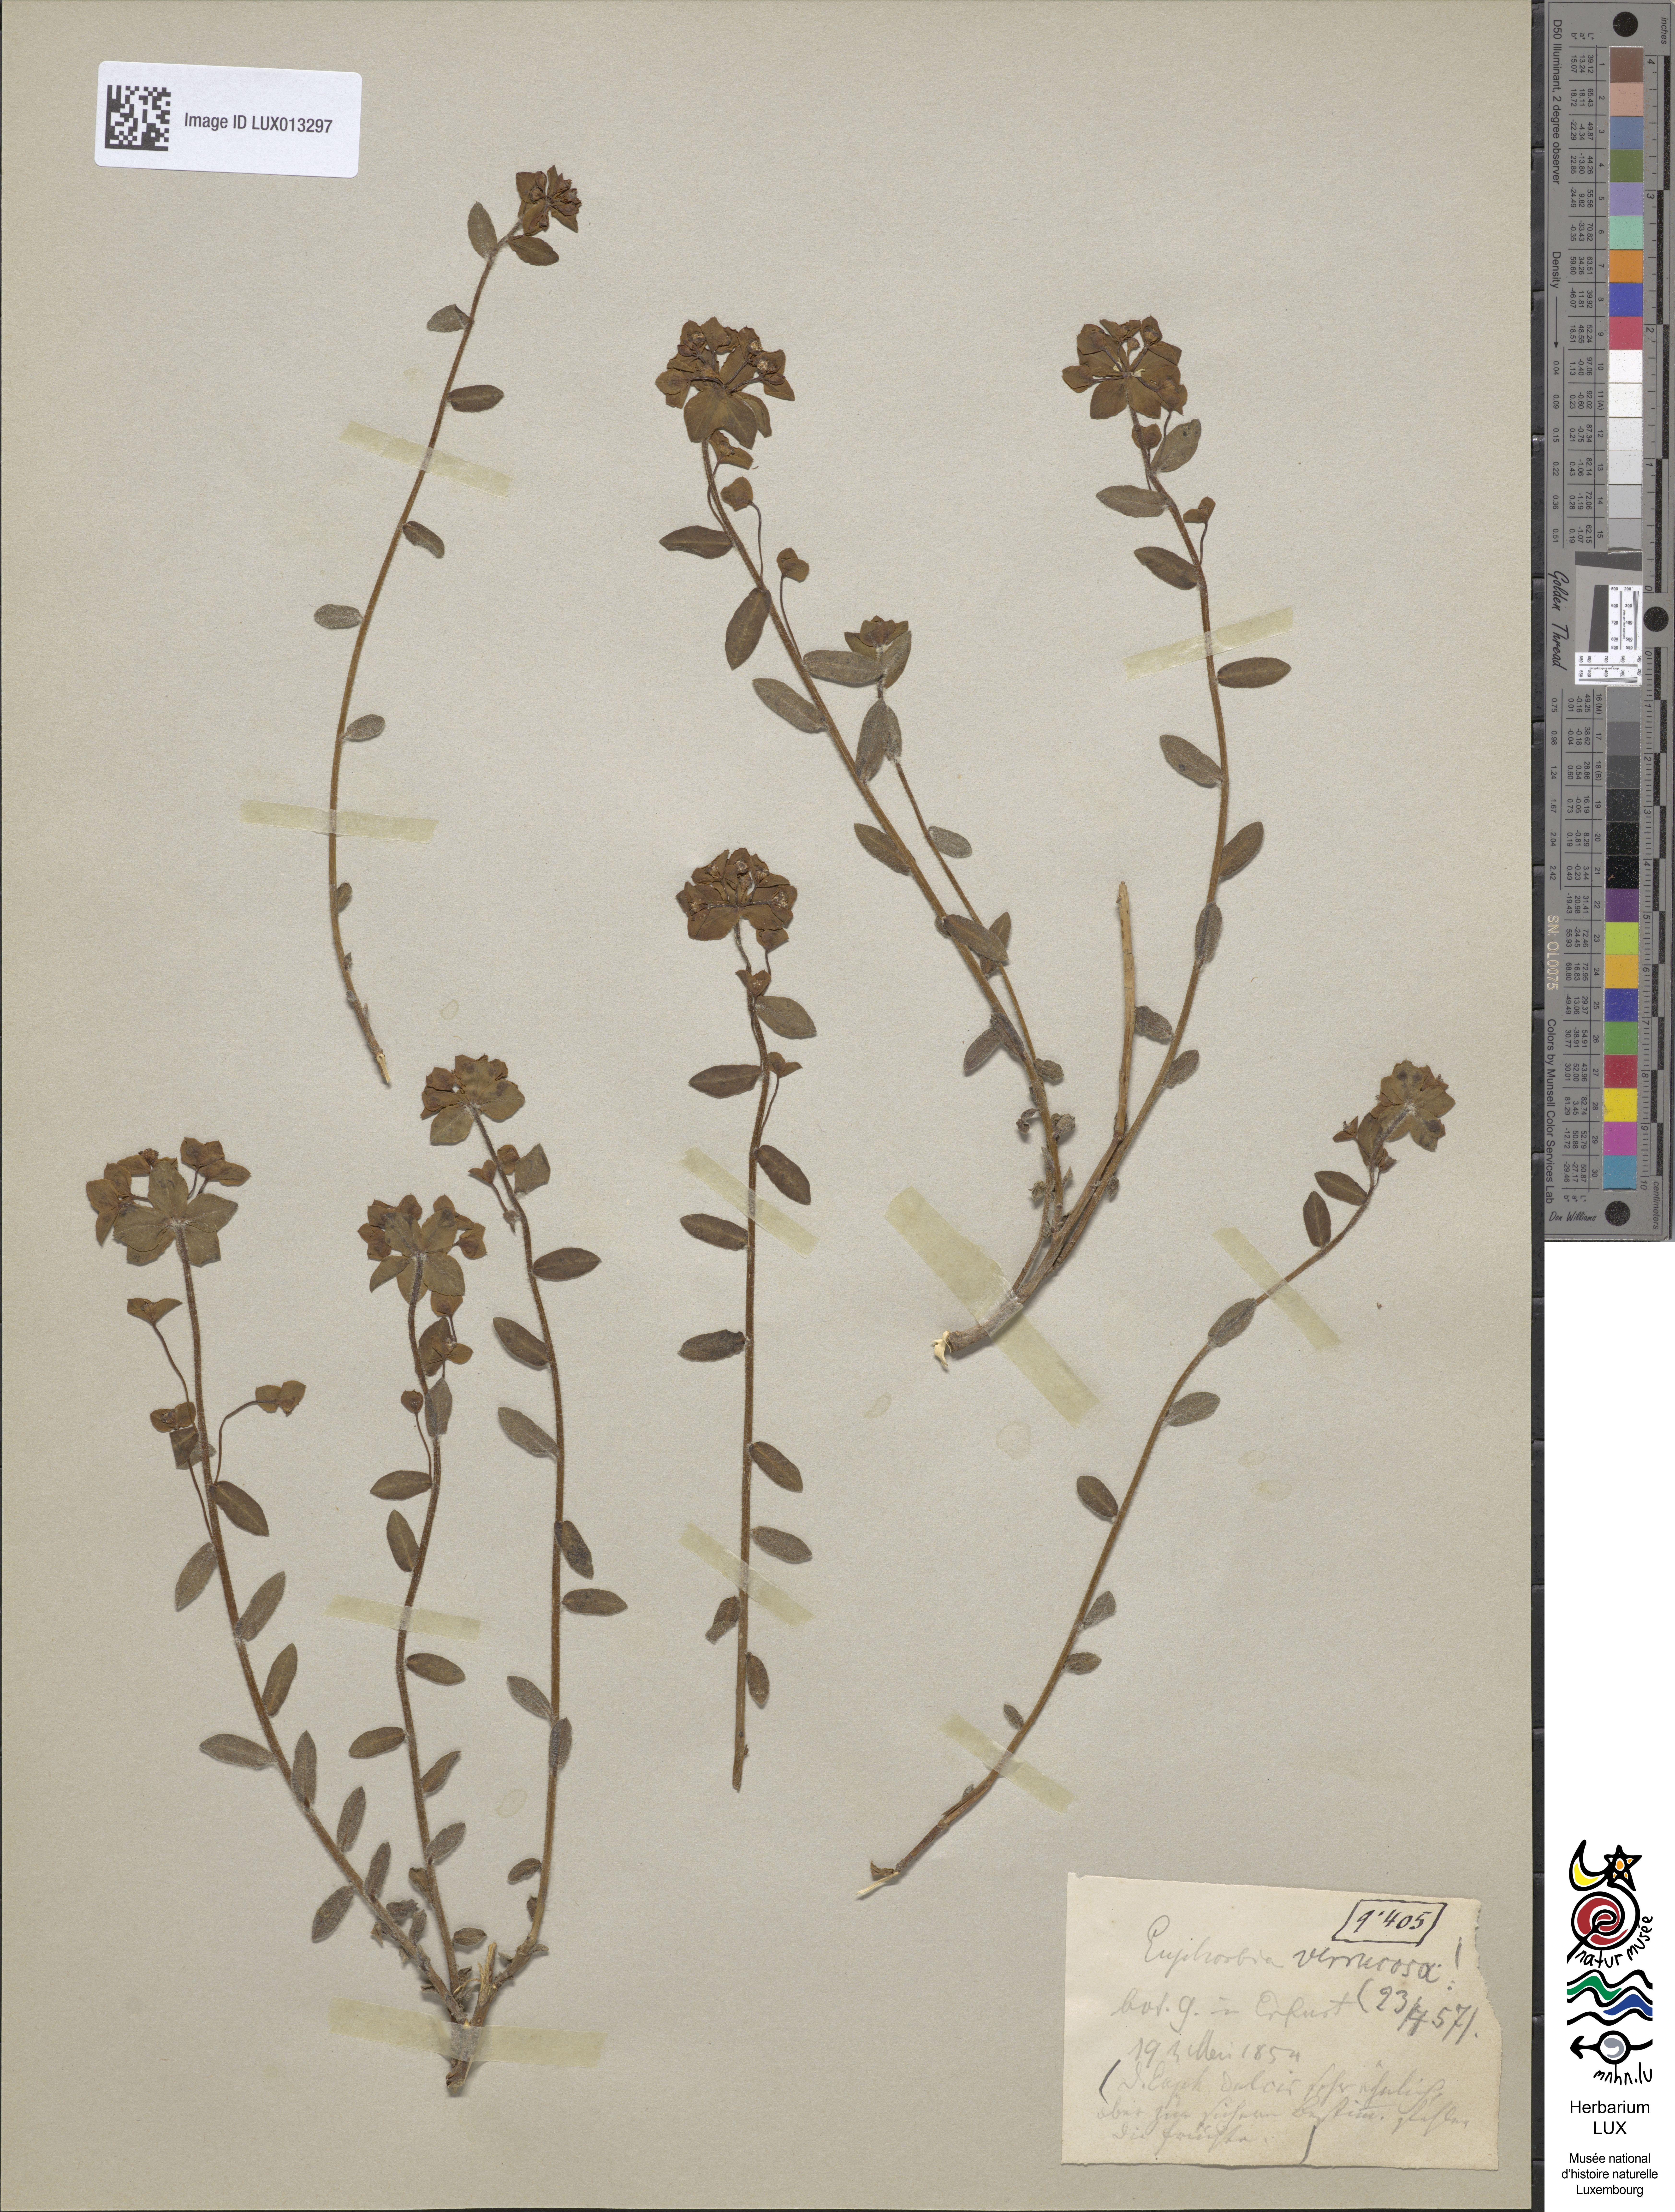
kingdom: Plantae
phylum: Tracheophyta
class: Magnoliopsida
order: Malpighiales
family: Euphorbiaceae
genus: Euphorbia
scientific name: Euphorbia verrucosa
